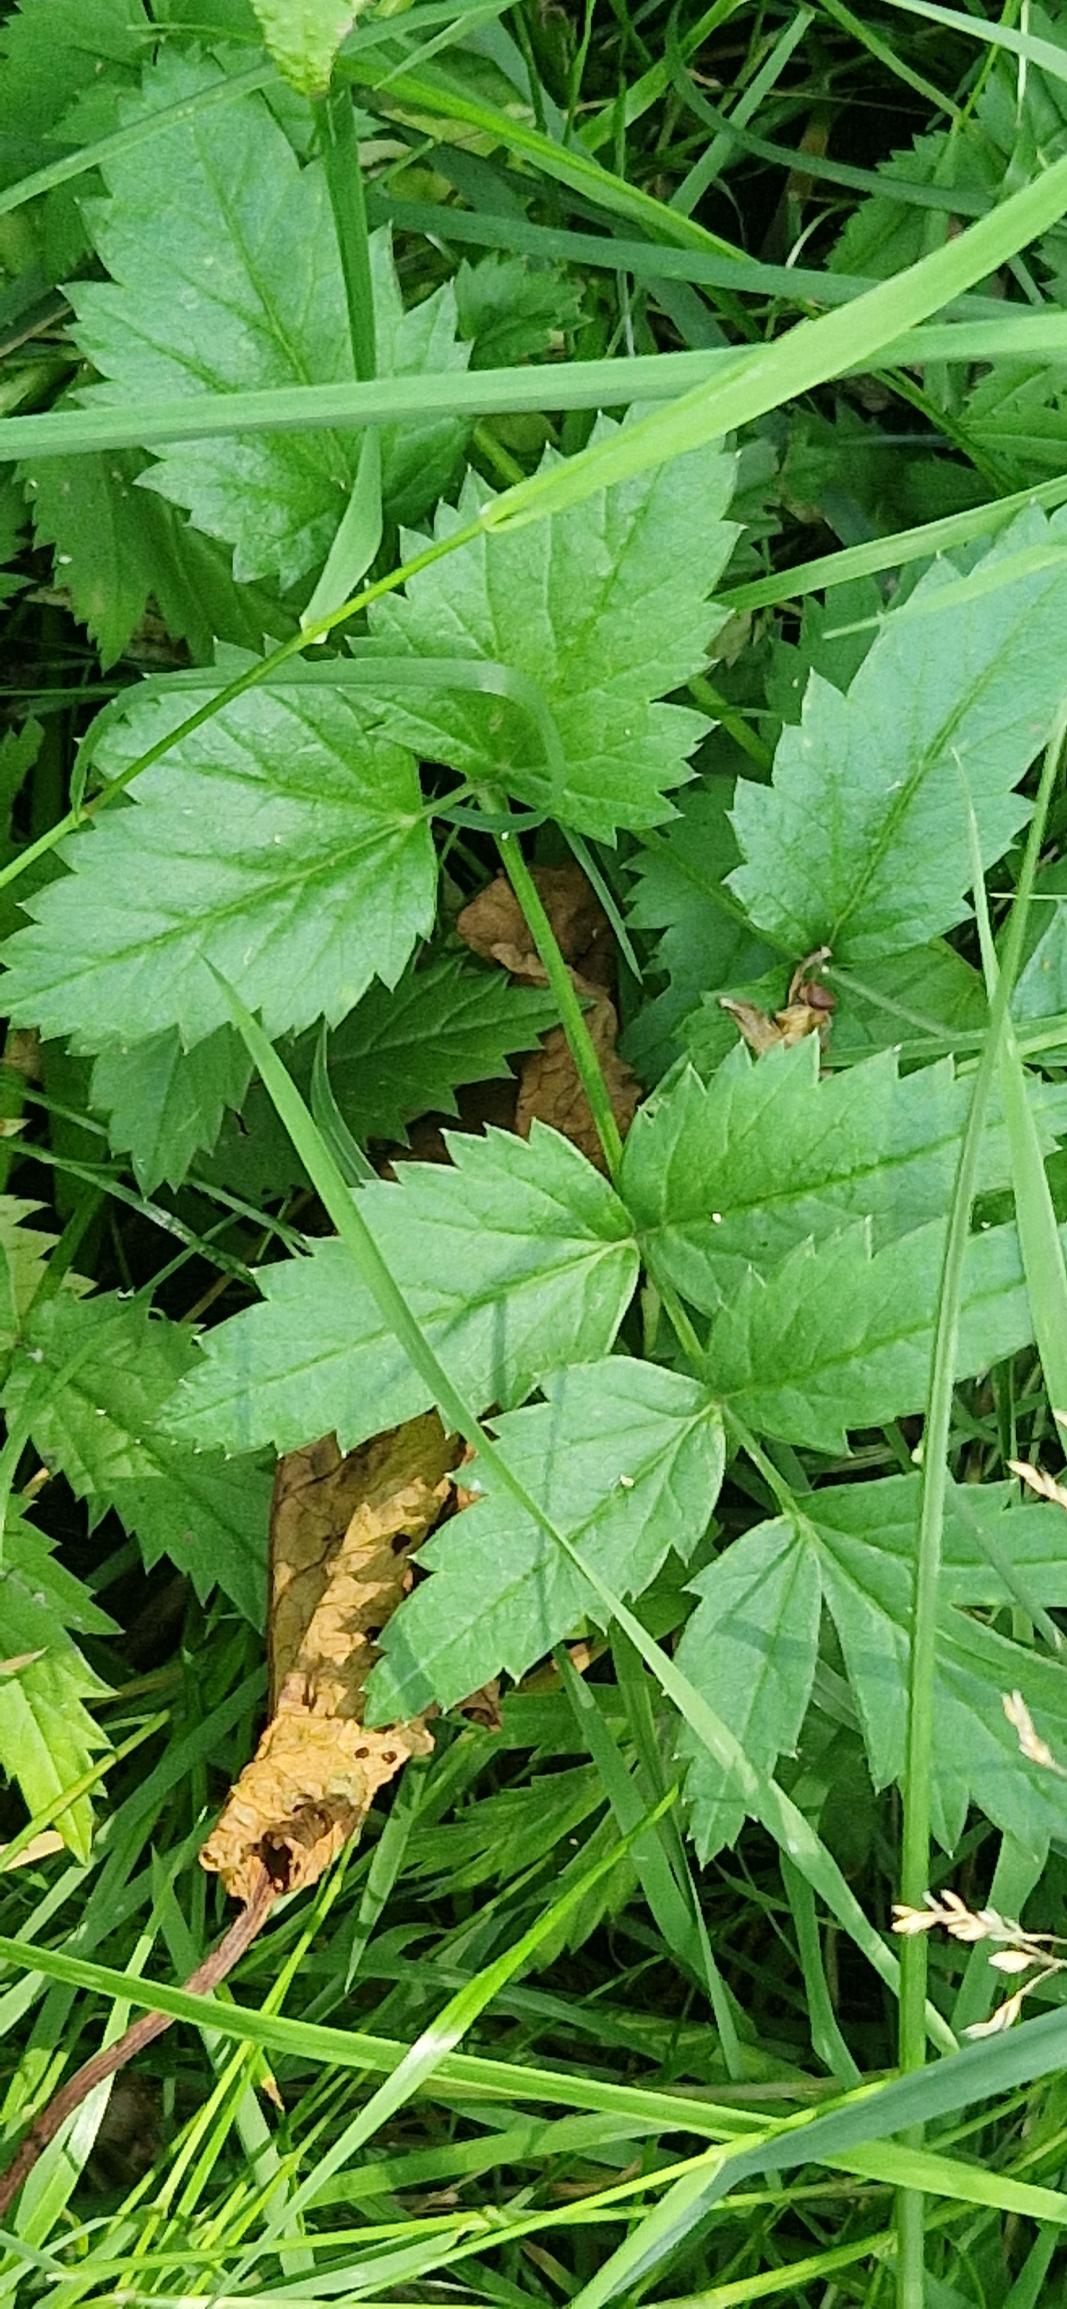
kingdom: Plantae
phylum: Tracheophyta
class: Magnoliopsida
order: Apiales
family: Apiaceae
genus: Pimpinella
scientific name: Pimpinella major
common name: Stor pimpinelle
